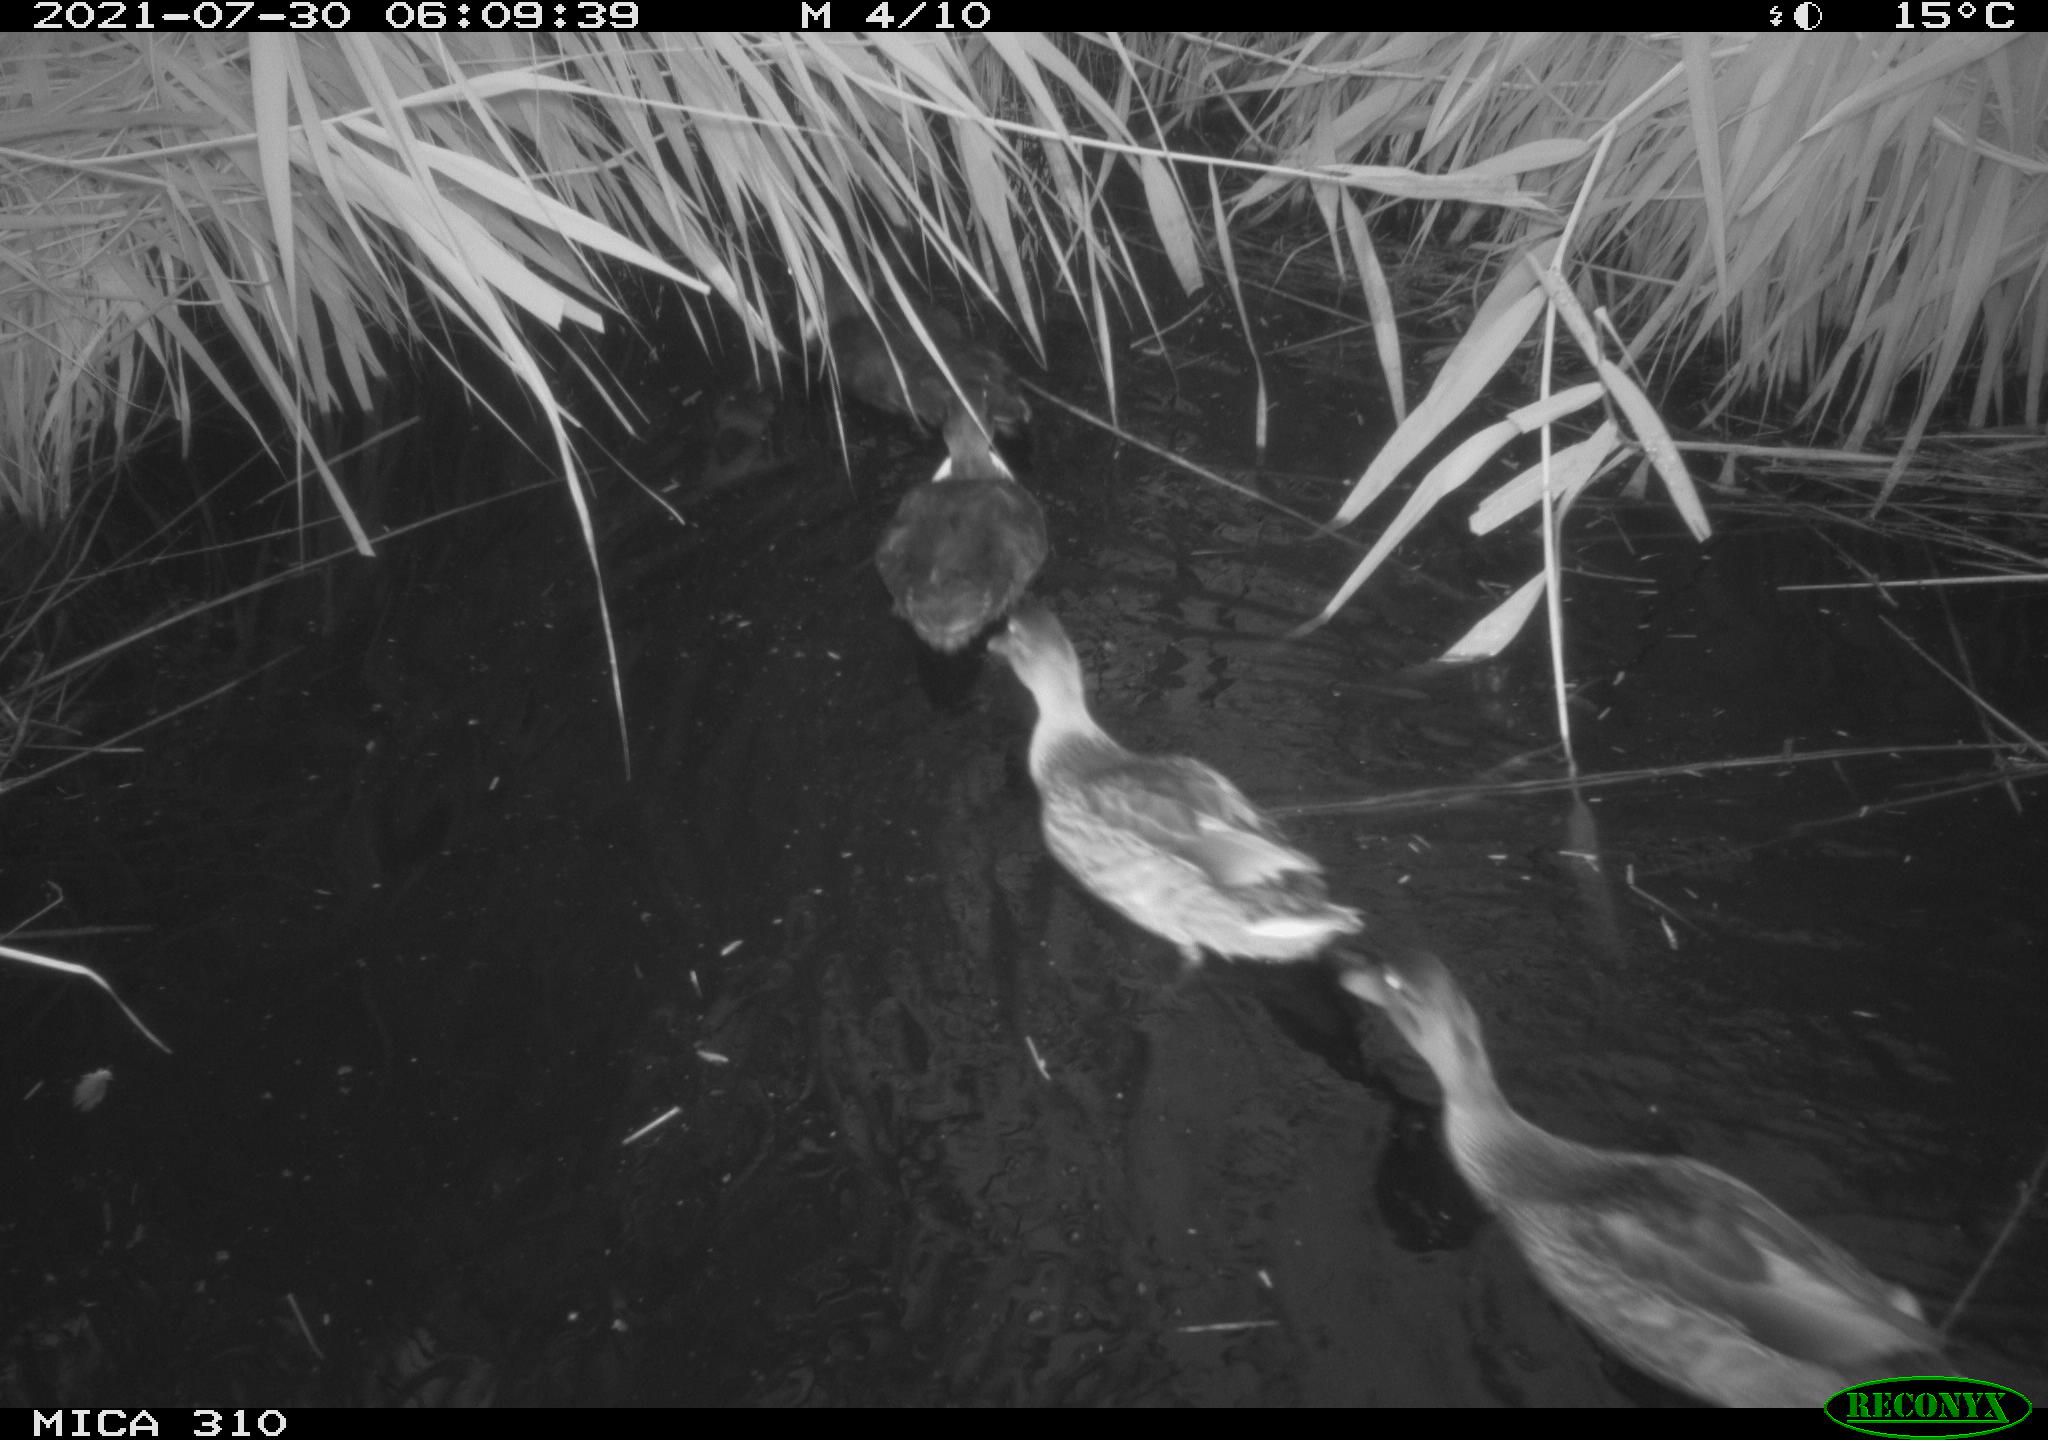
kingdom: Animalia
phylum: Chordata
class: Aves
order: Gruiformes
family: Rallidae
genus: Fulica
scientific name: Fulica atra
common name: Eurasian coot
